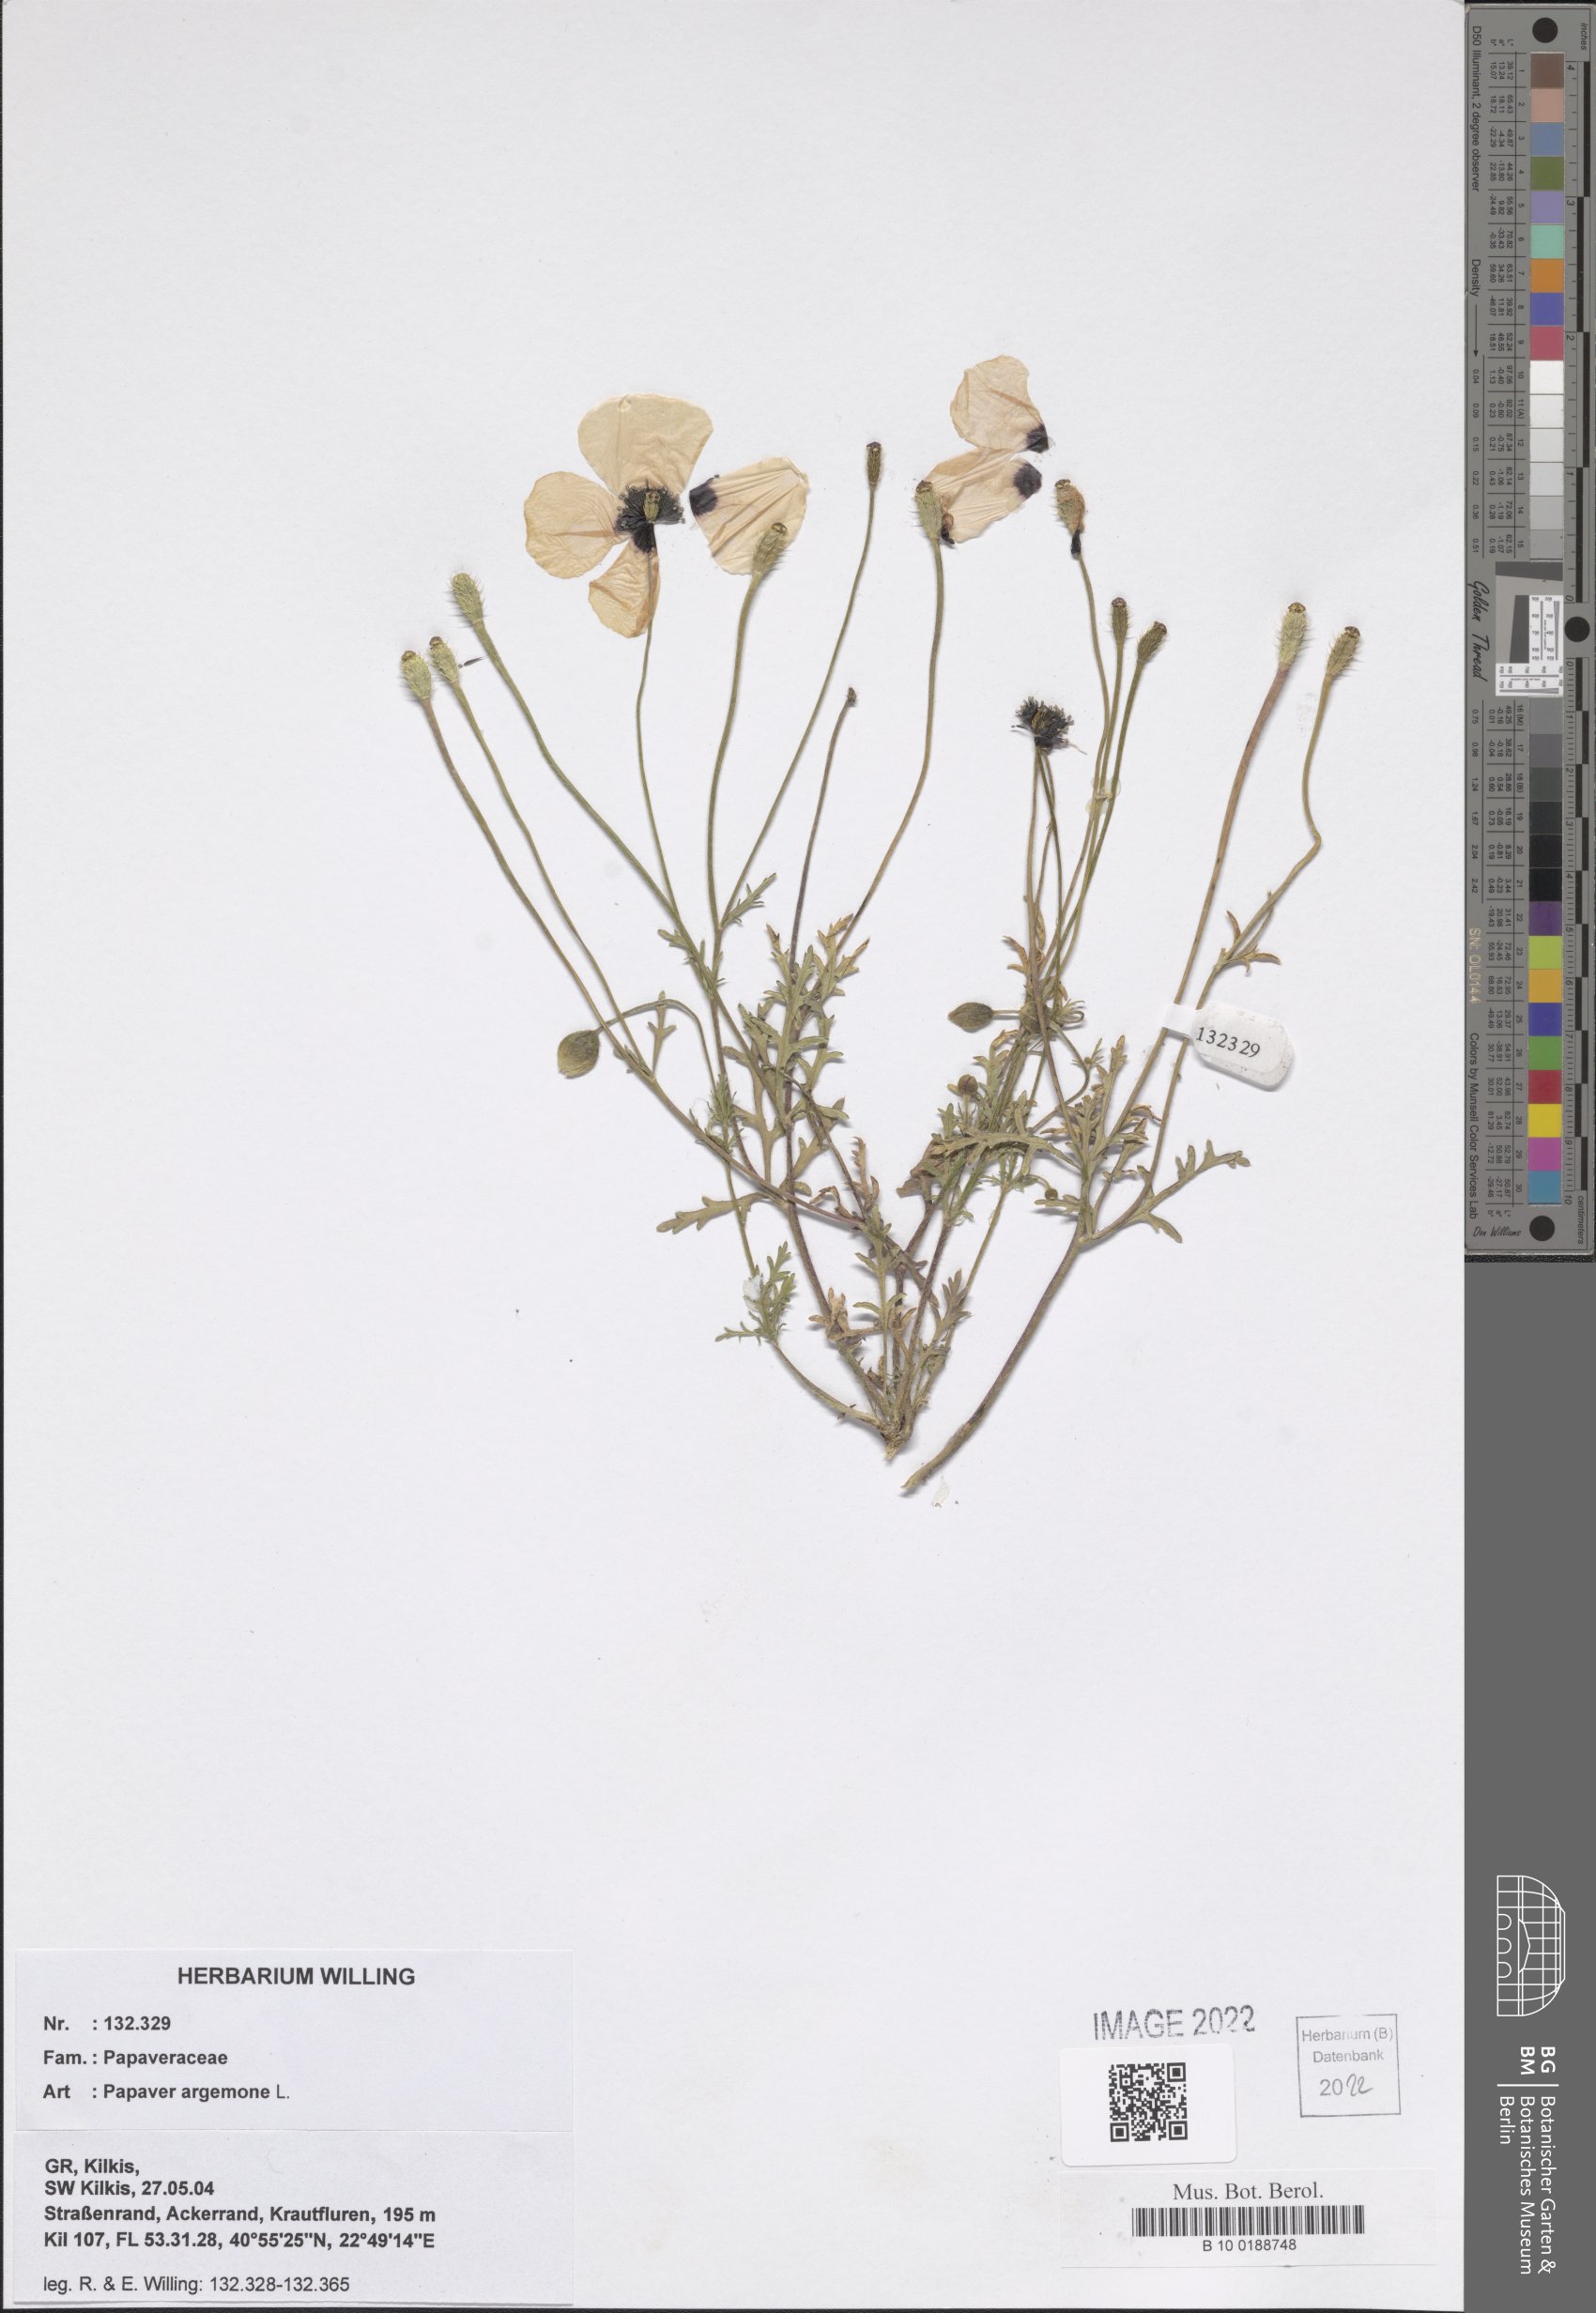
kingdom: Plantae
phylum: Tracheophyta
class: Magnoliopsida
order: Ranunculales
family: Papaveraceae
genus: Roemeria
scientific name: Roemeria argemone
